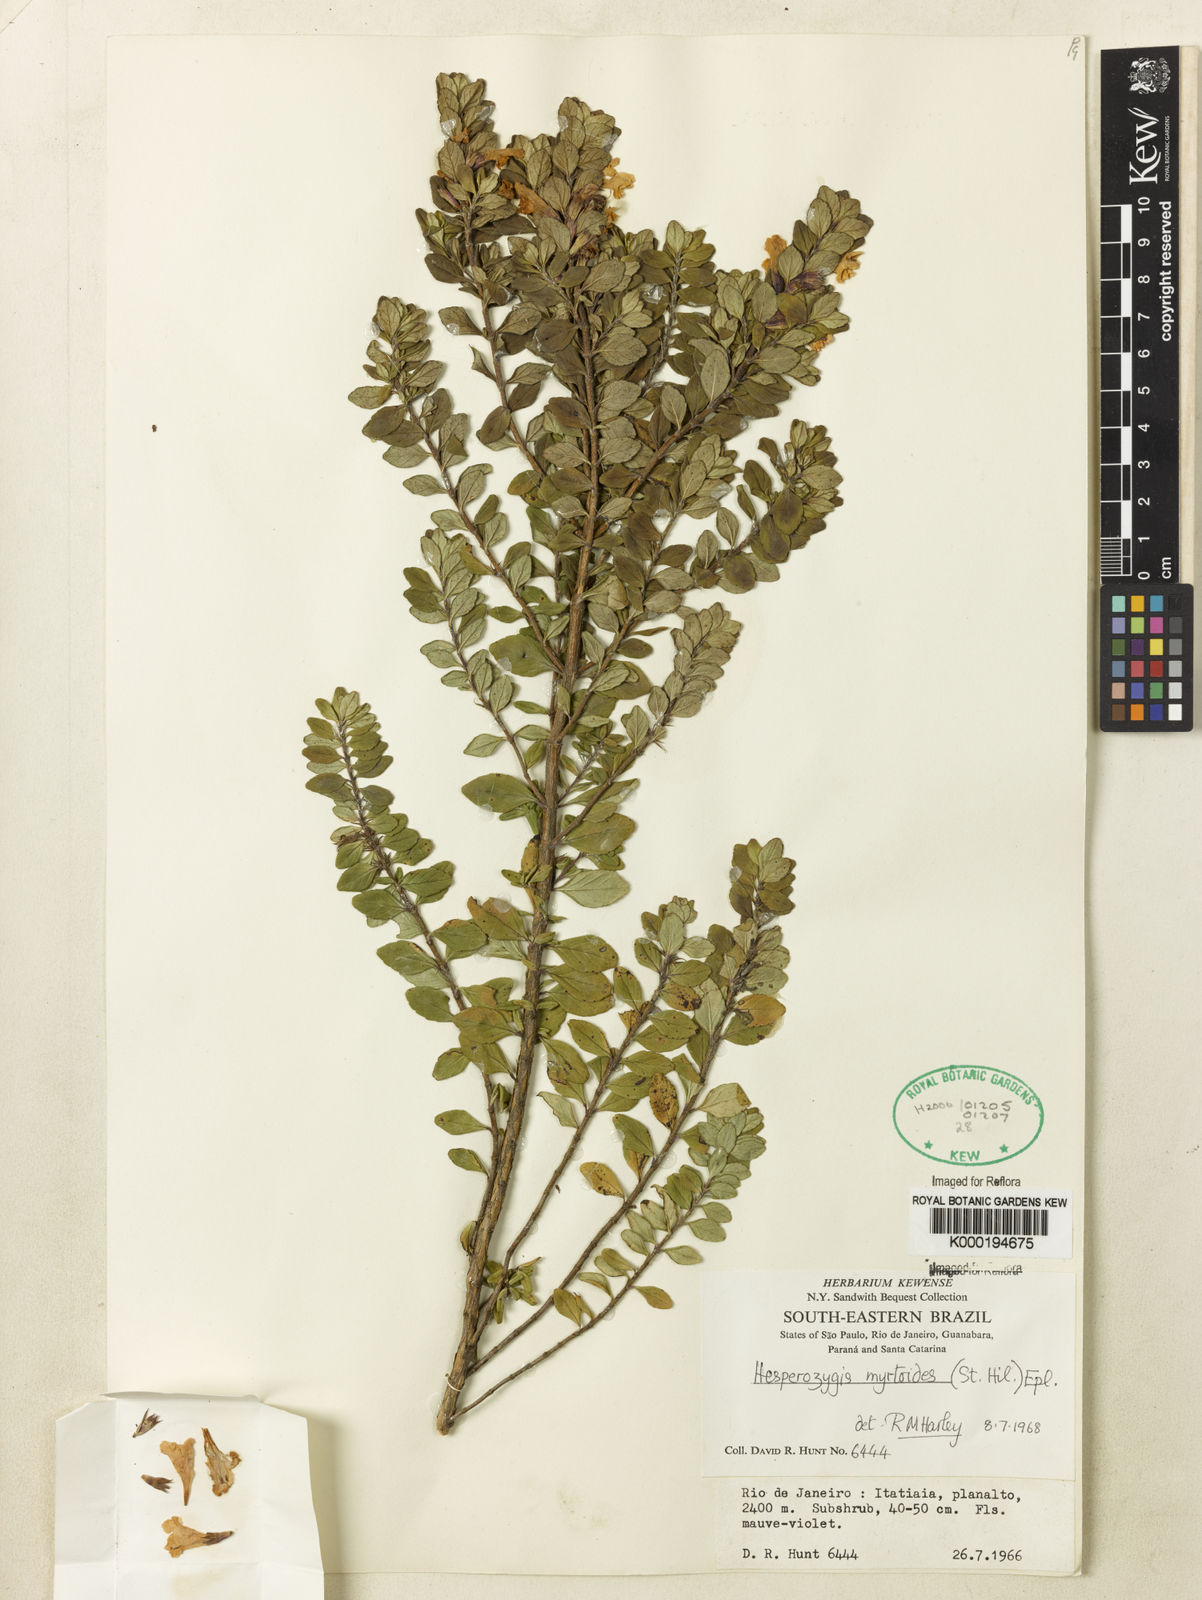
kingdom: Plantae
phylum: Tracheophyta
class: Magnoliopsida
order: Lamiales
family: Lamiaceae
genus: Hesperozygis
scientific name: Hesperozygis myrtoides
